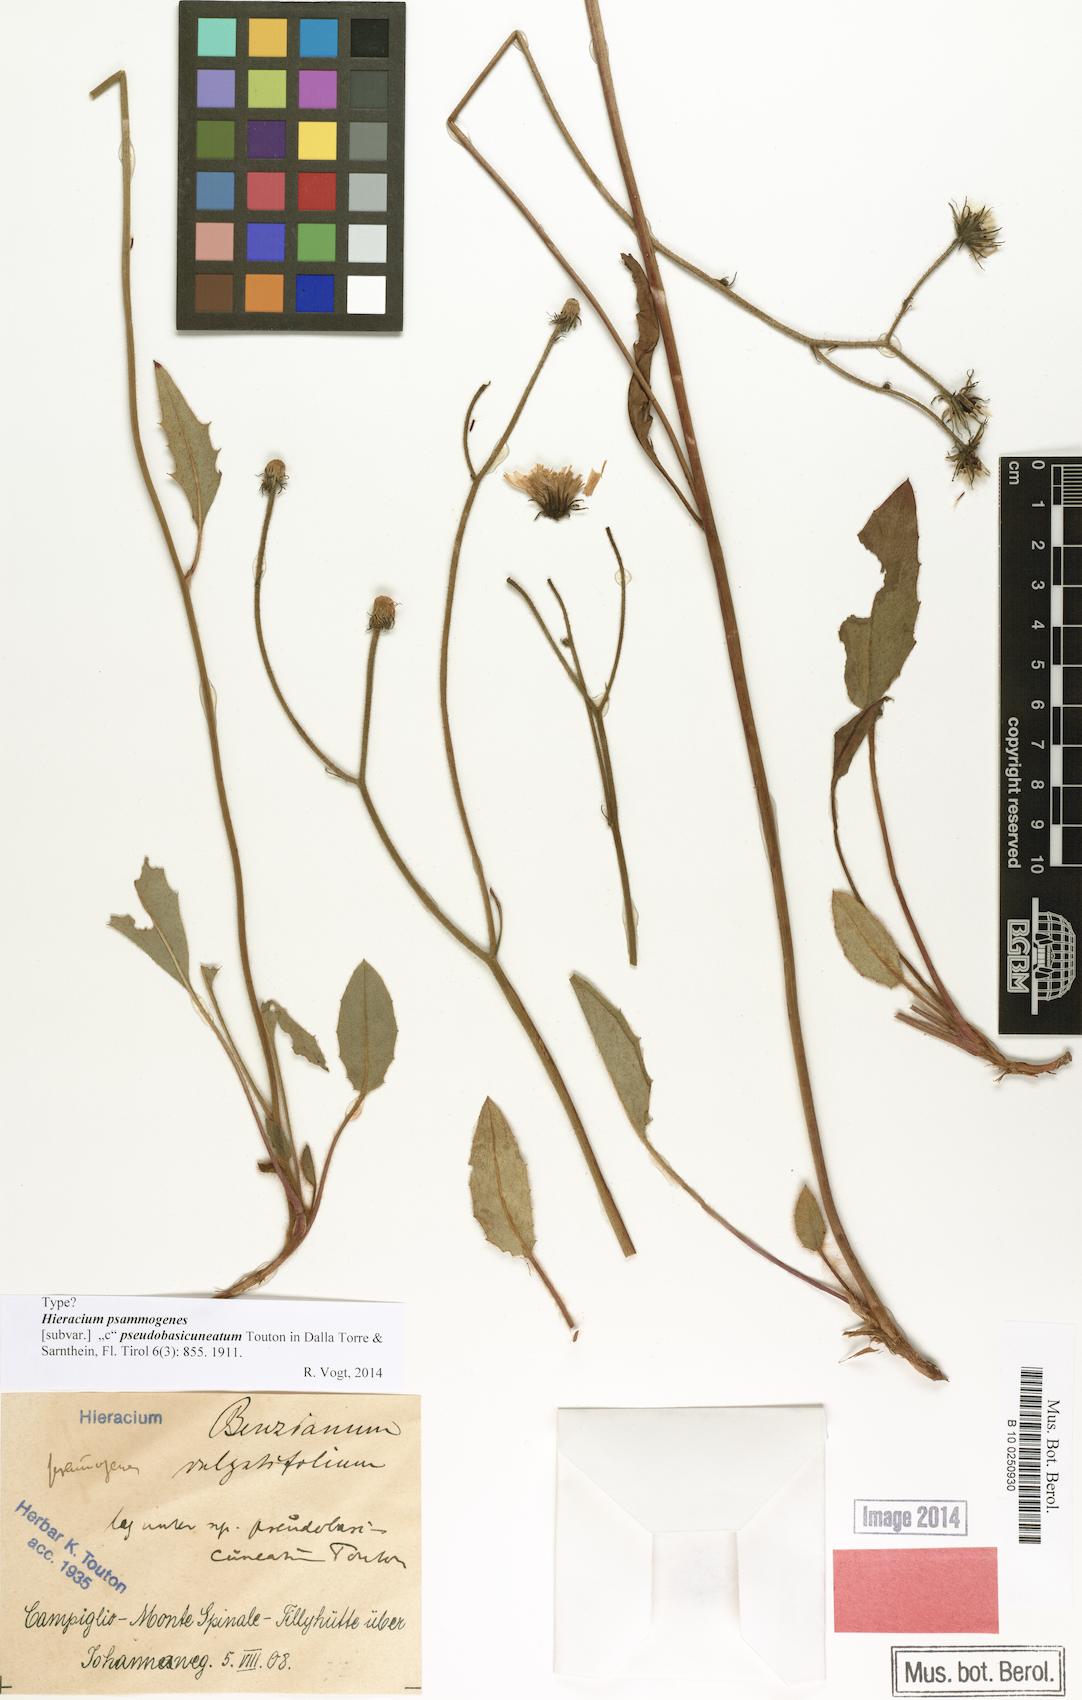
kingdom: Plantae
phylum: Tracheophyta
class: Magnoliopsida
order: Asterales
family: Asteraceae
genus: Hieracium
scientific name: Hieracium bifidum
